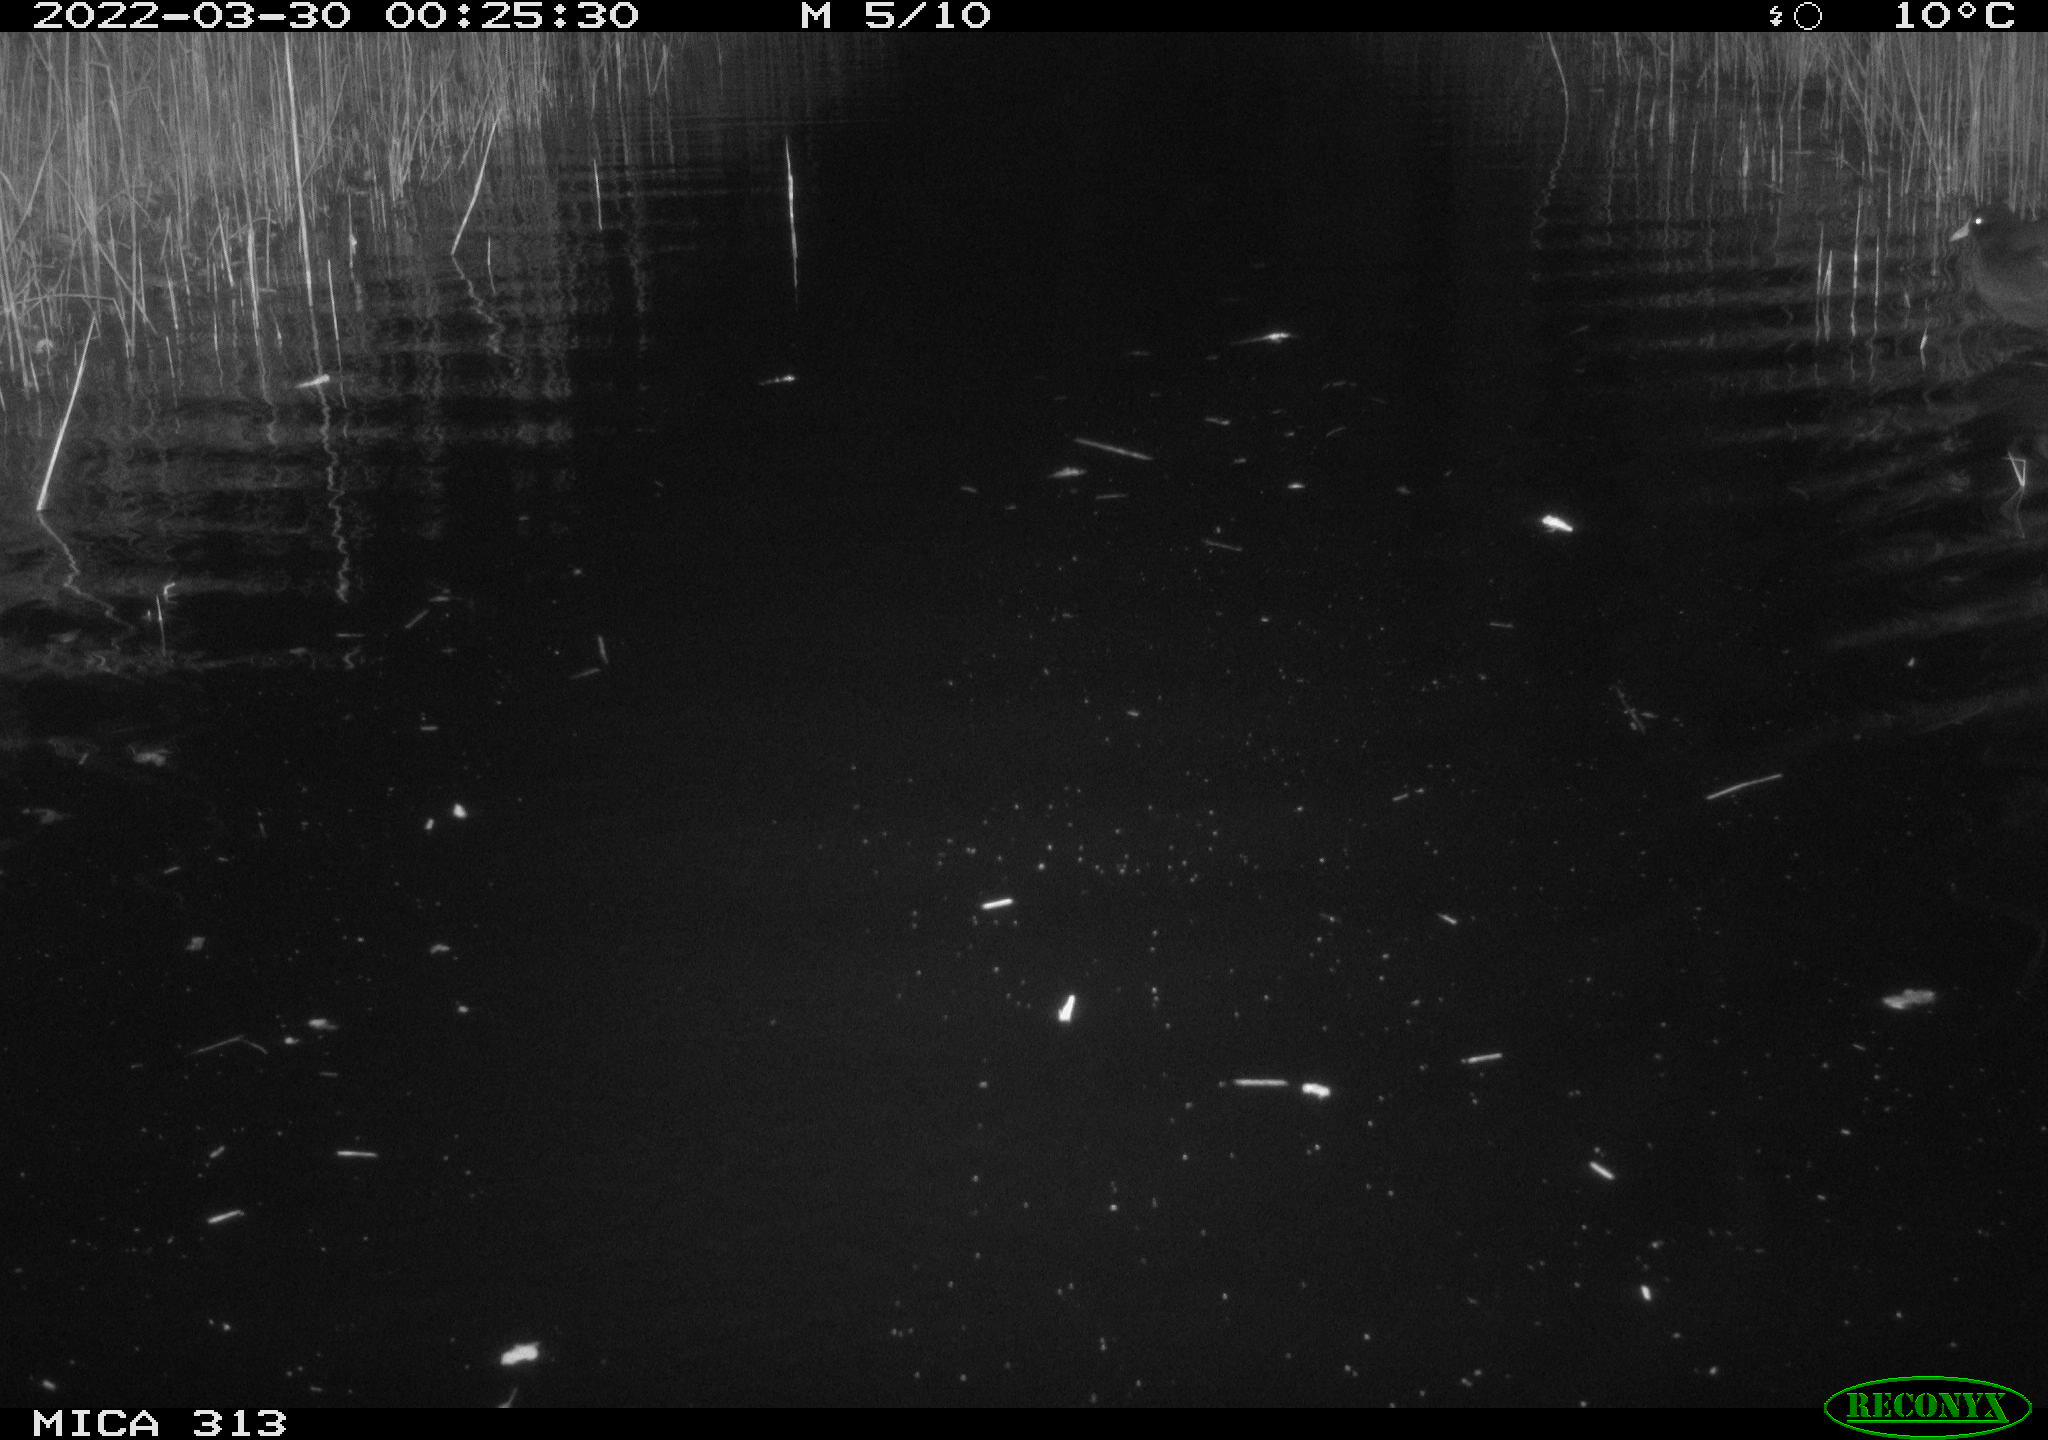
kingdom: Animalia
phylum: Chordata
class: Aves
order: Anseriformes
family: Anatidae
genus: Anas
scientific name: Anas platyrhynchos
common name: Mallard
